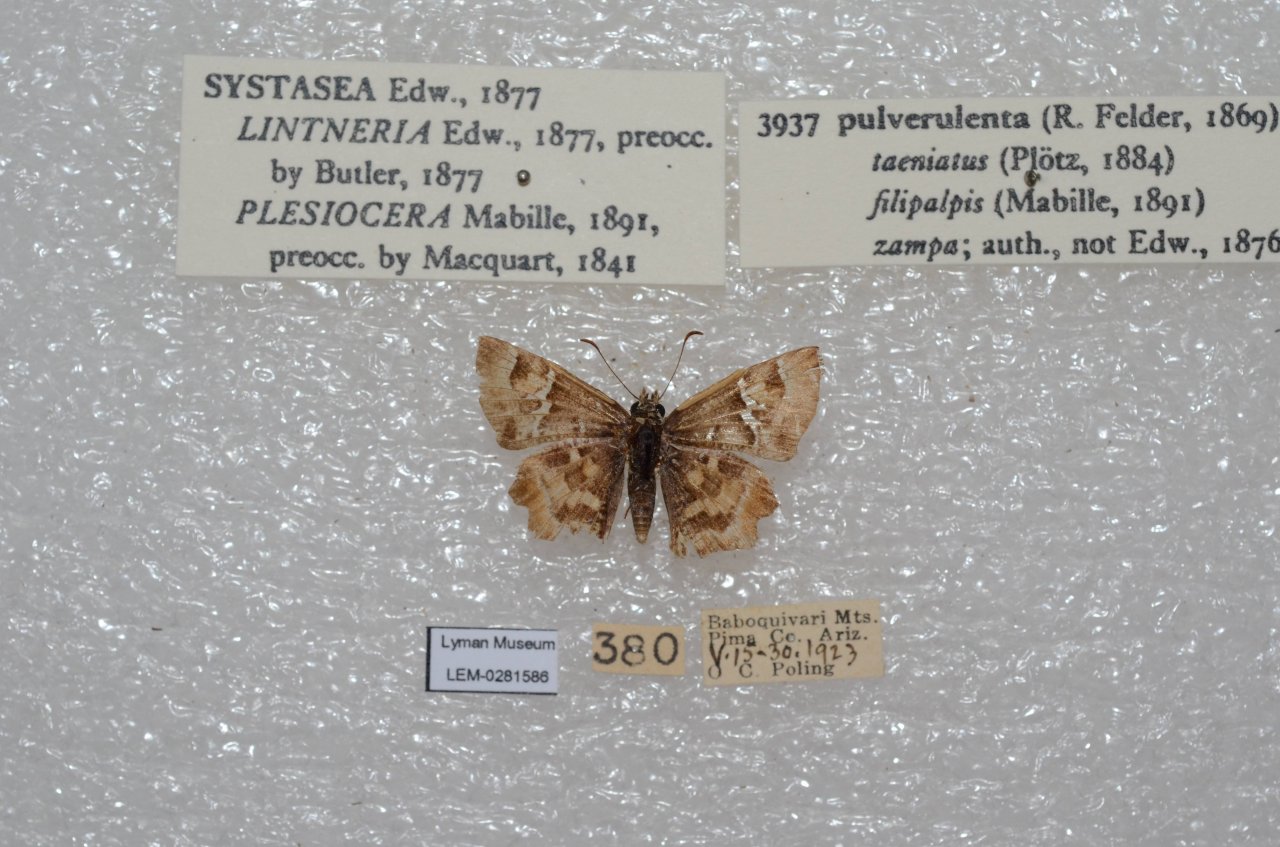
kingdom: Animalia
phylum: Arthropoda
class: Insecta
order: Lepidoptera
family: Hesperiidae
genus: Systasea
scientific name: Systasea pulverulenta
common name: Texas Powdered-Skipper
